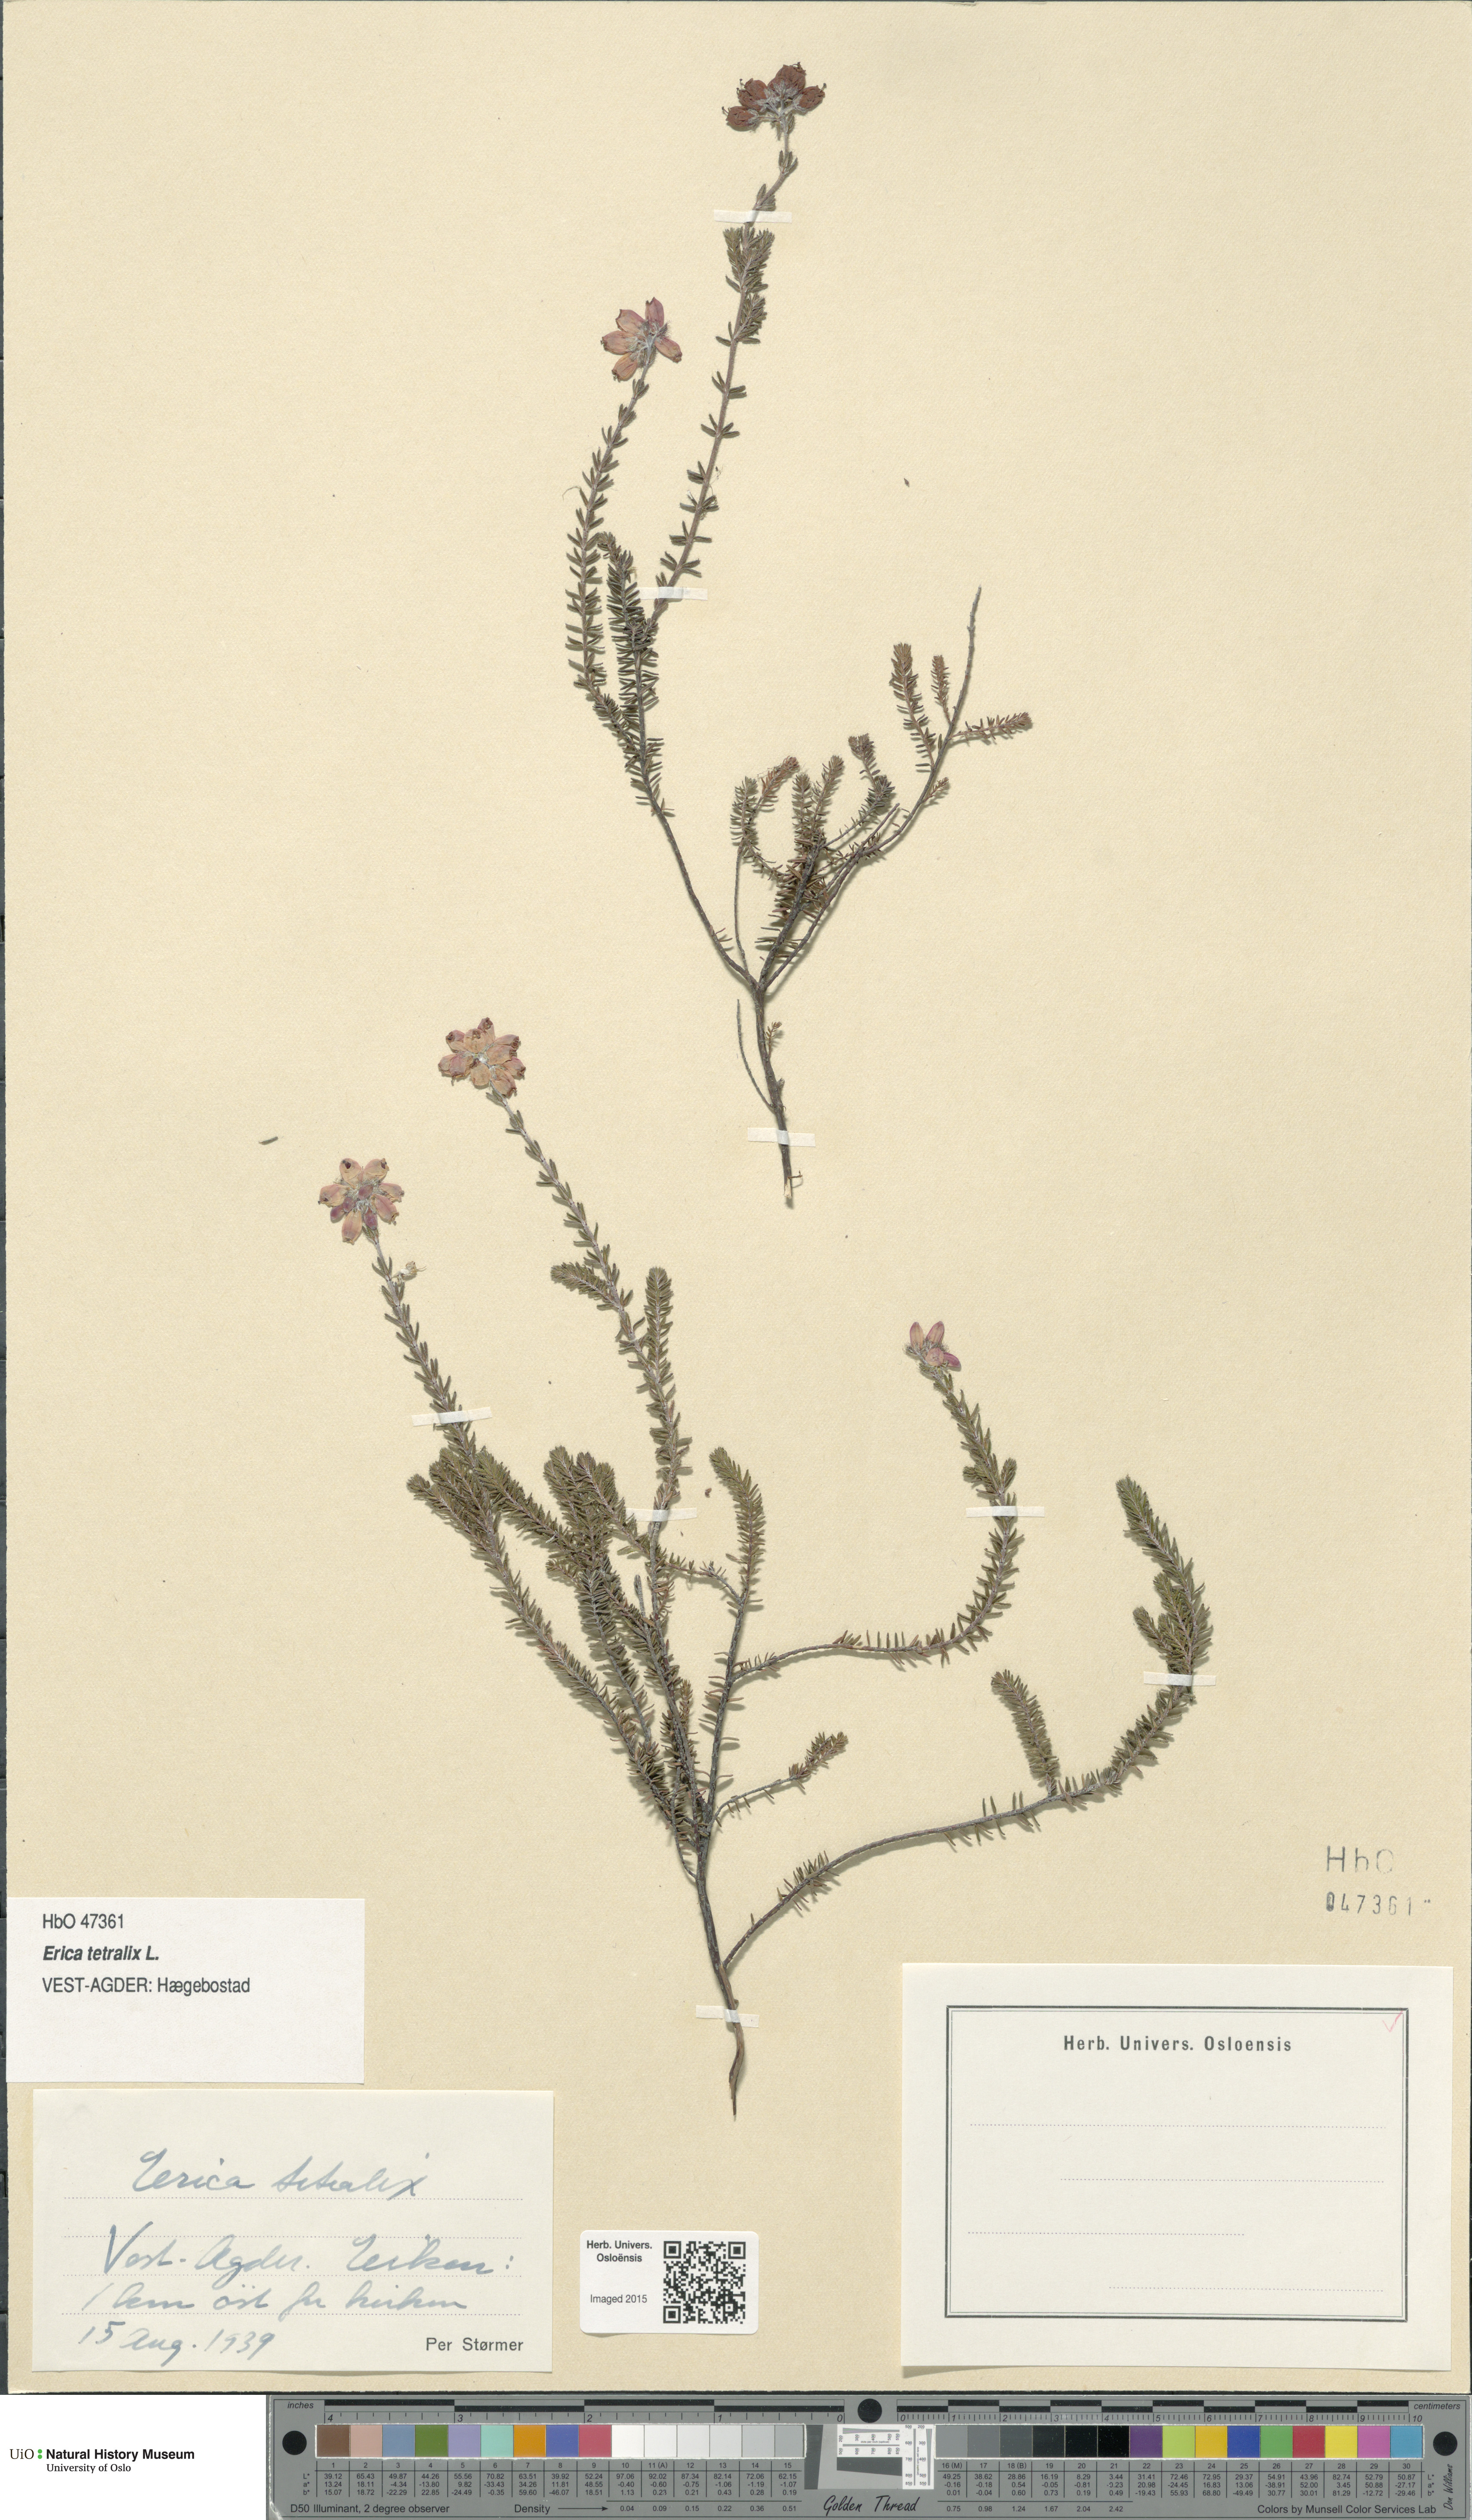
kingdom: Plantae
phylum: Tracheophyta
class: Magnoliopsida
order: Ericales
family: Ericaceae
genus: Erica
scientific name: Erica tetralix
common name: Cross-leaved heath
